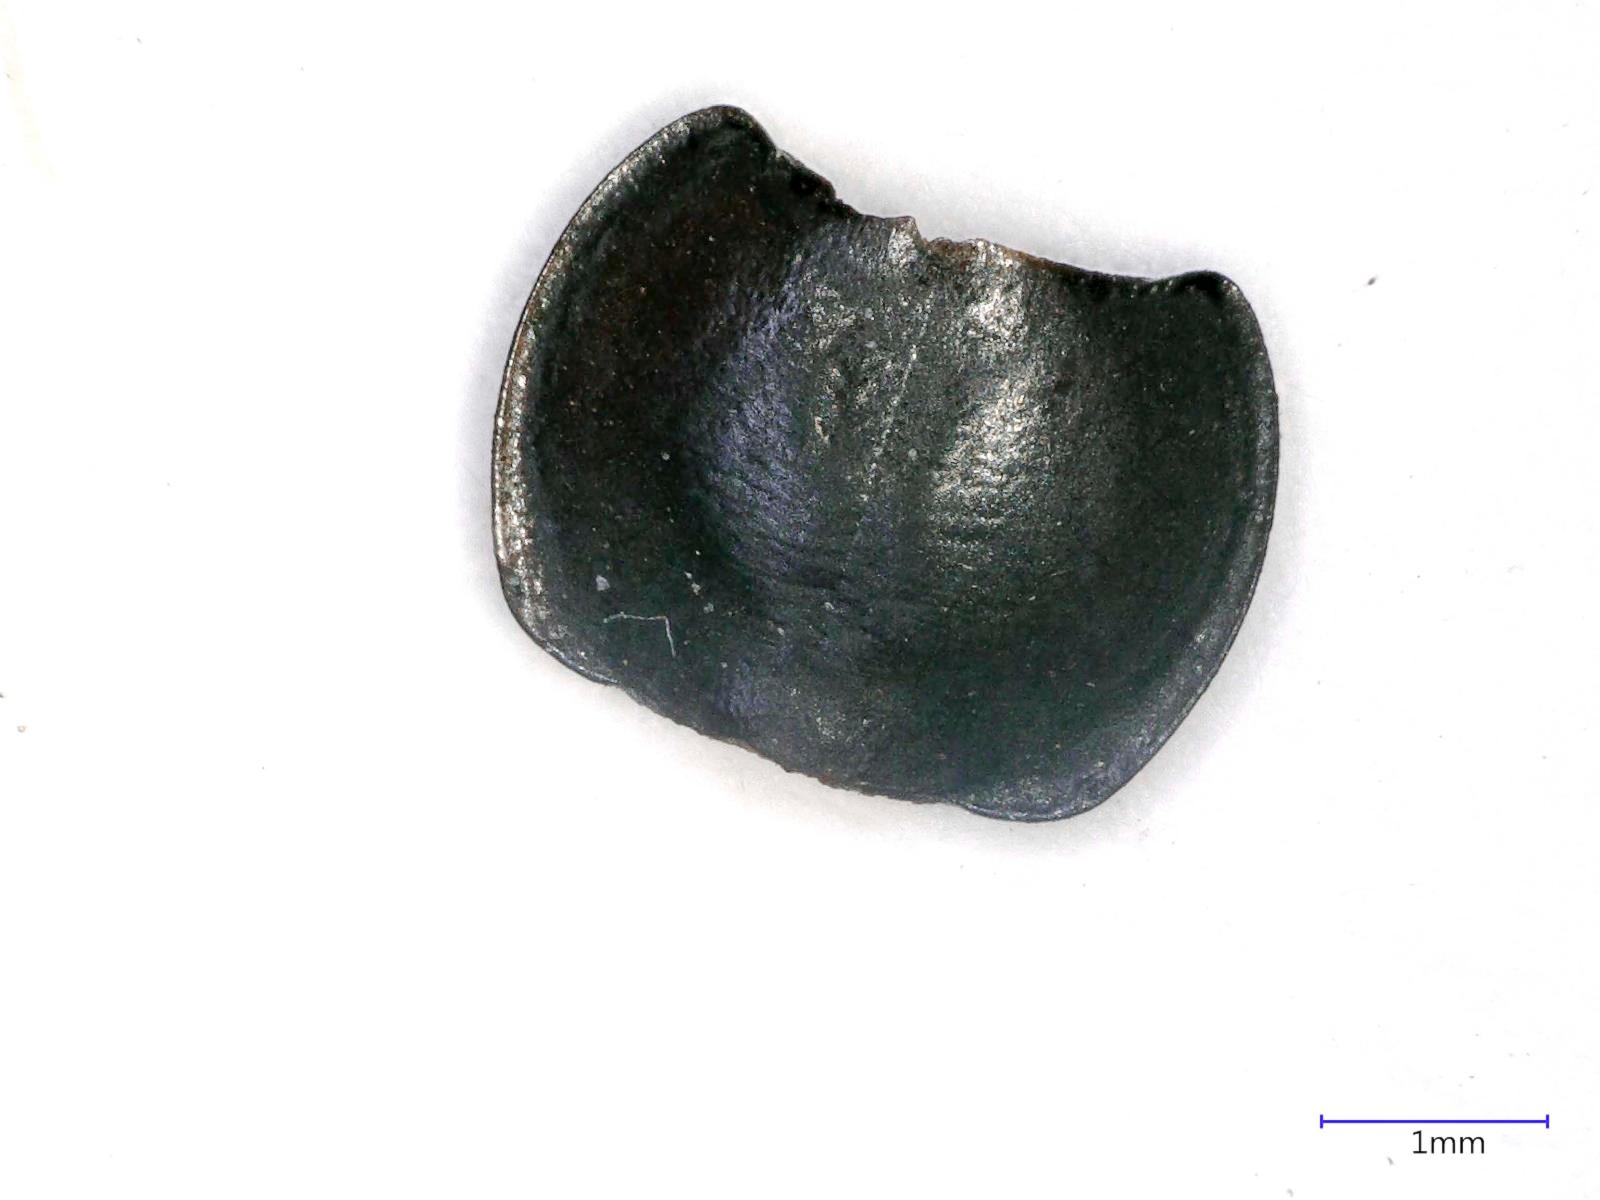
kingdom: Animalia
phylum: Arthropoda
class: Insecta
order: Coleoptera
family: Carabidae
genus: Tanystoma
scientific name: Tanystoma maculicolle
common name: Tule beetle
